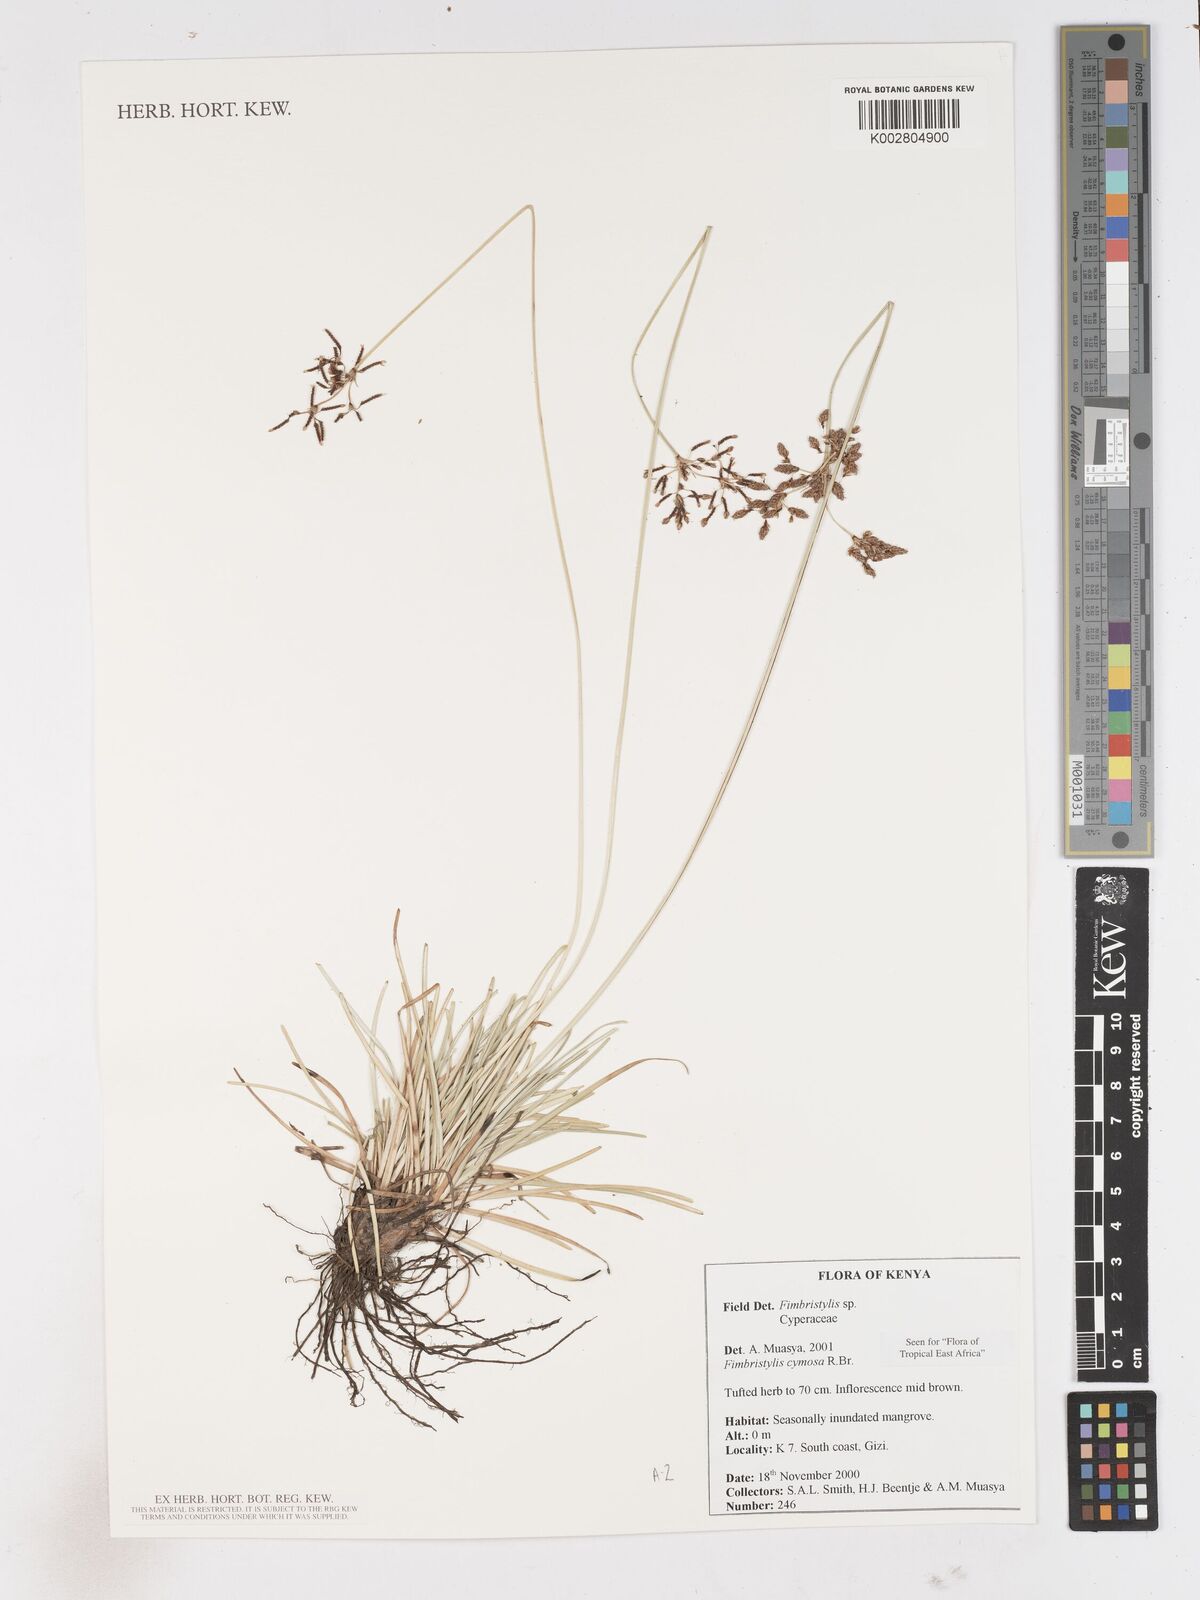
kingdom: Plantae
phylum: Tracheophyta
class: Liliopsida
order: Poales
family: Cyperaceae
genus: Fimbristylis
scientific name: Fimbristylis cymosa
